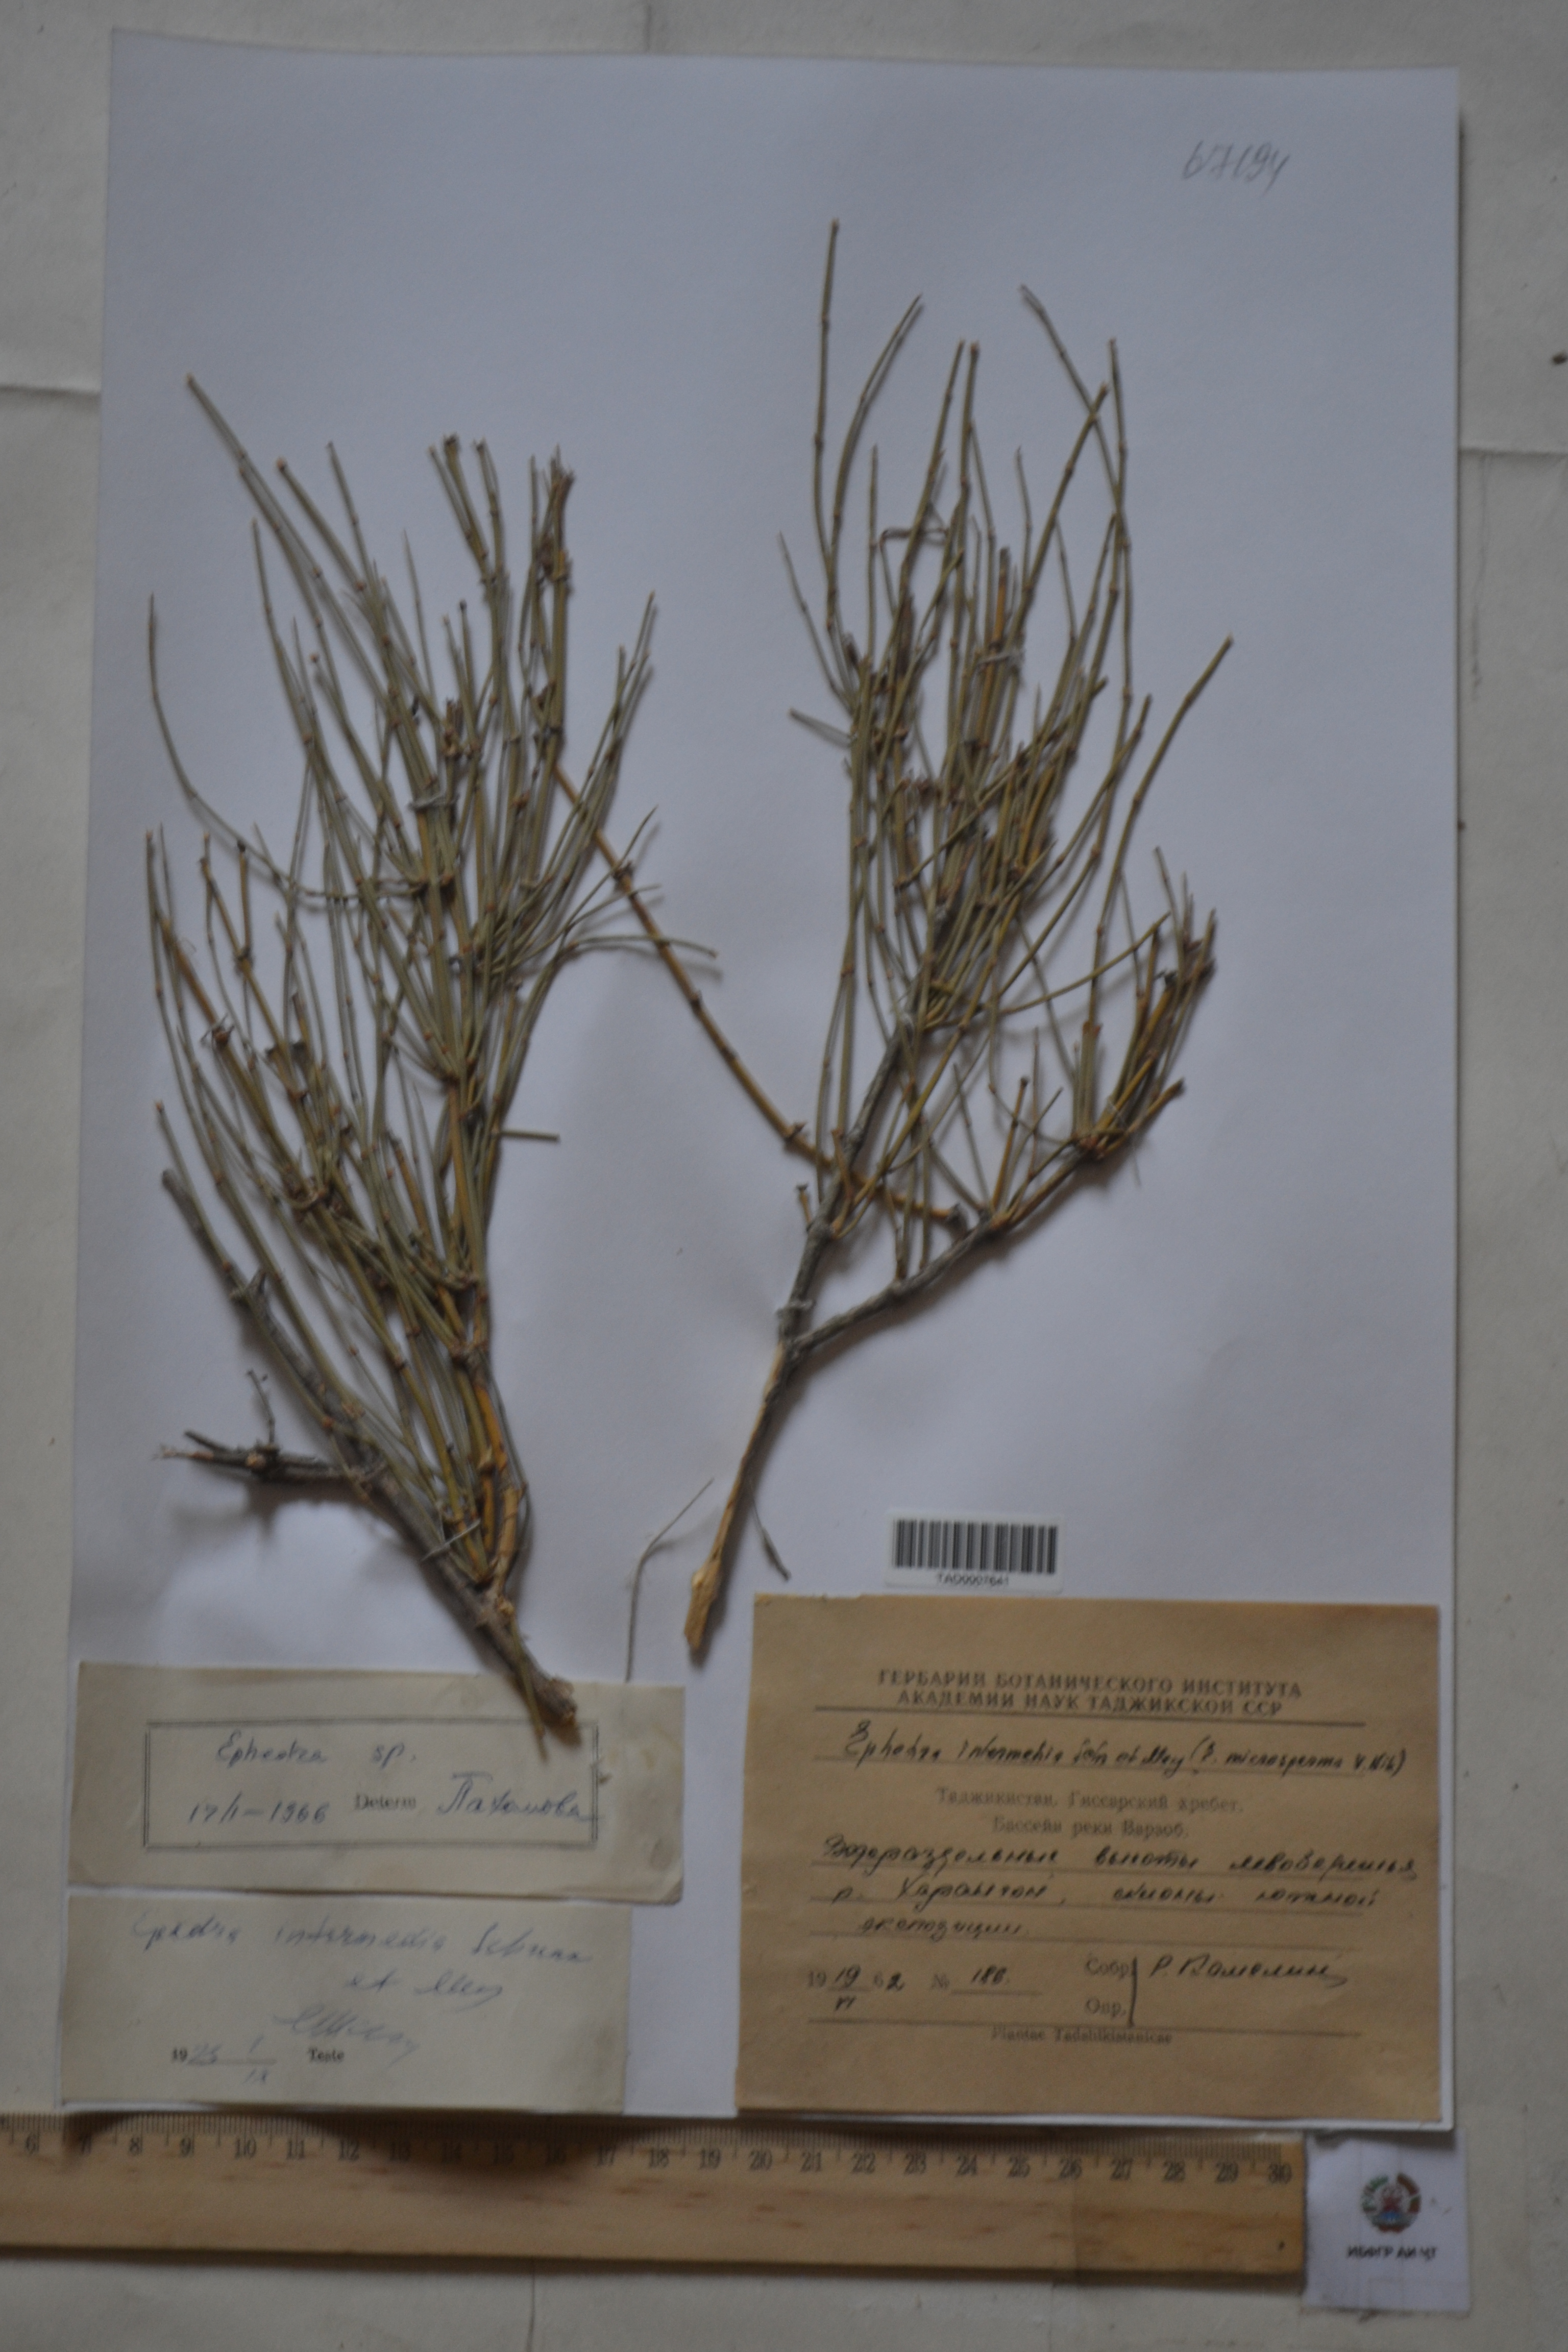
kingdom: Plantae
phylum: Tracheophyta
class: Gnetopsida
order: Ephedrales
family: Ephedraceae
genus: Ephedra
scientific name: Ephedra intermedia
